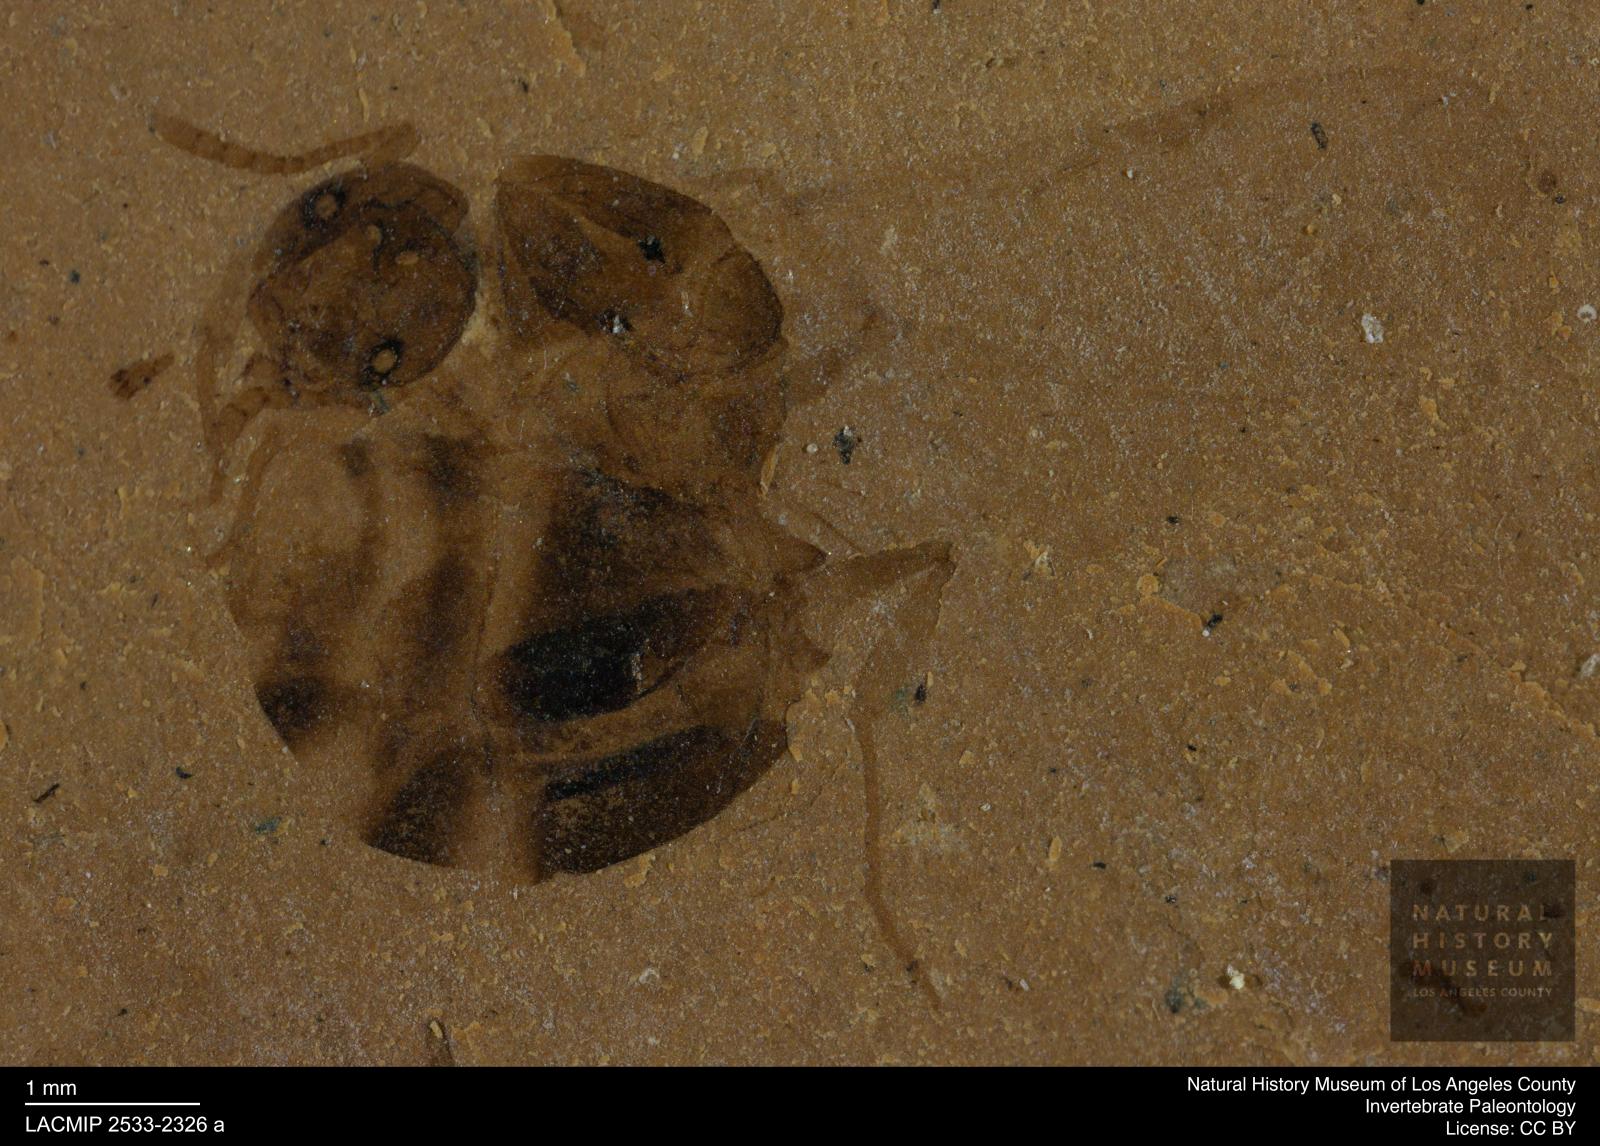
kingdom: Animalia
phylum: Arthropoda
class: Insecta
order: Hymenoptera
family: Formicidae
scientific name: Formicidae
